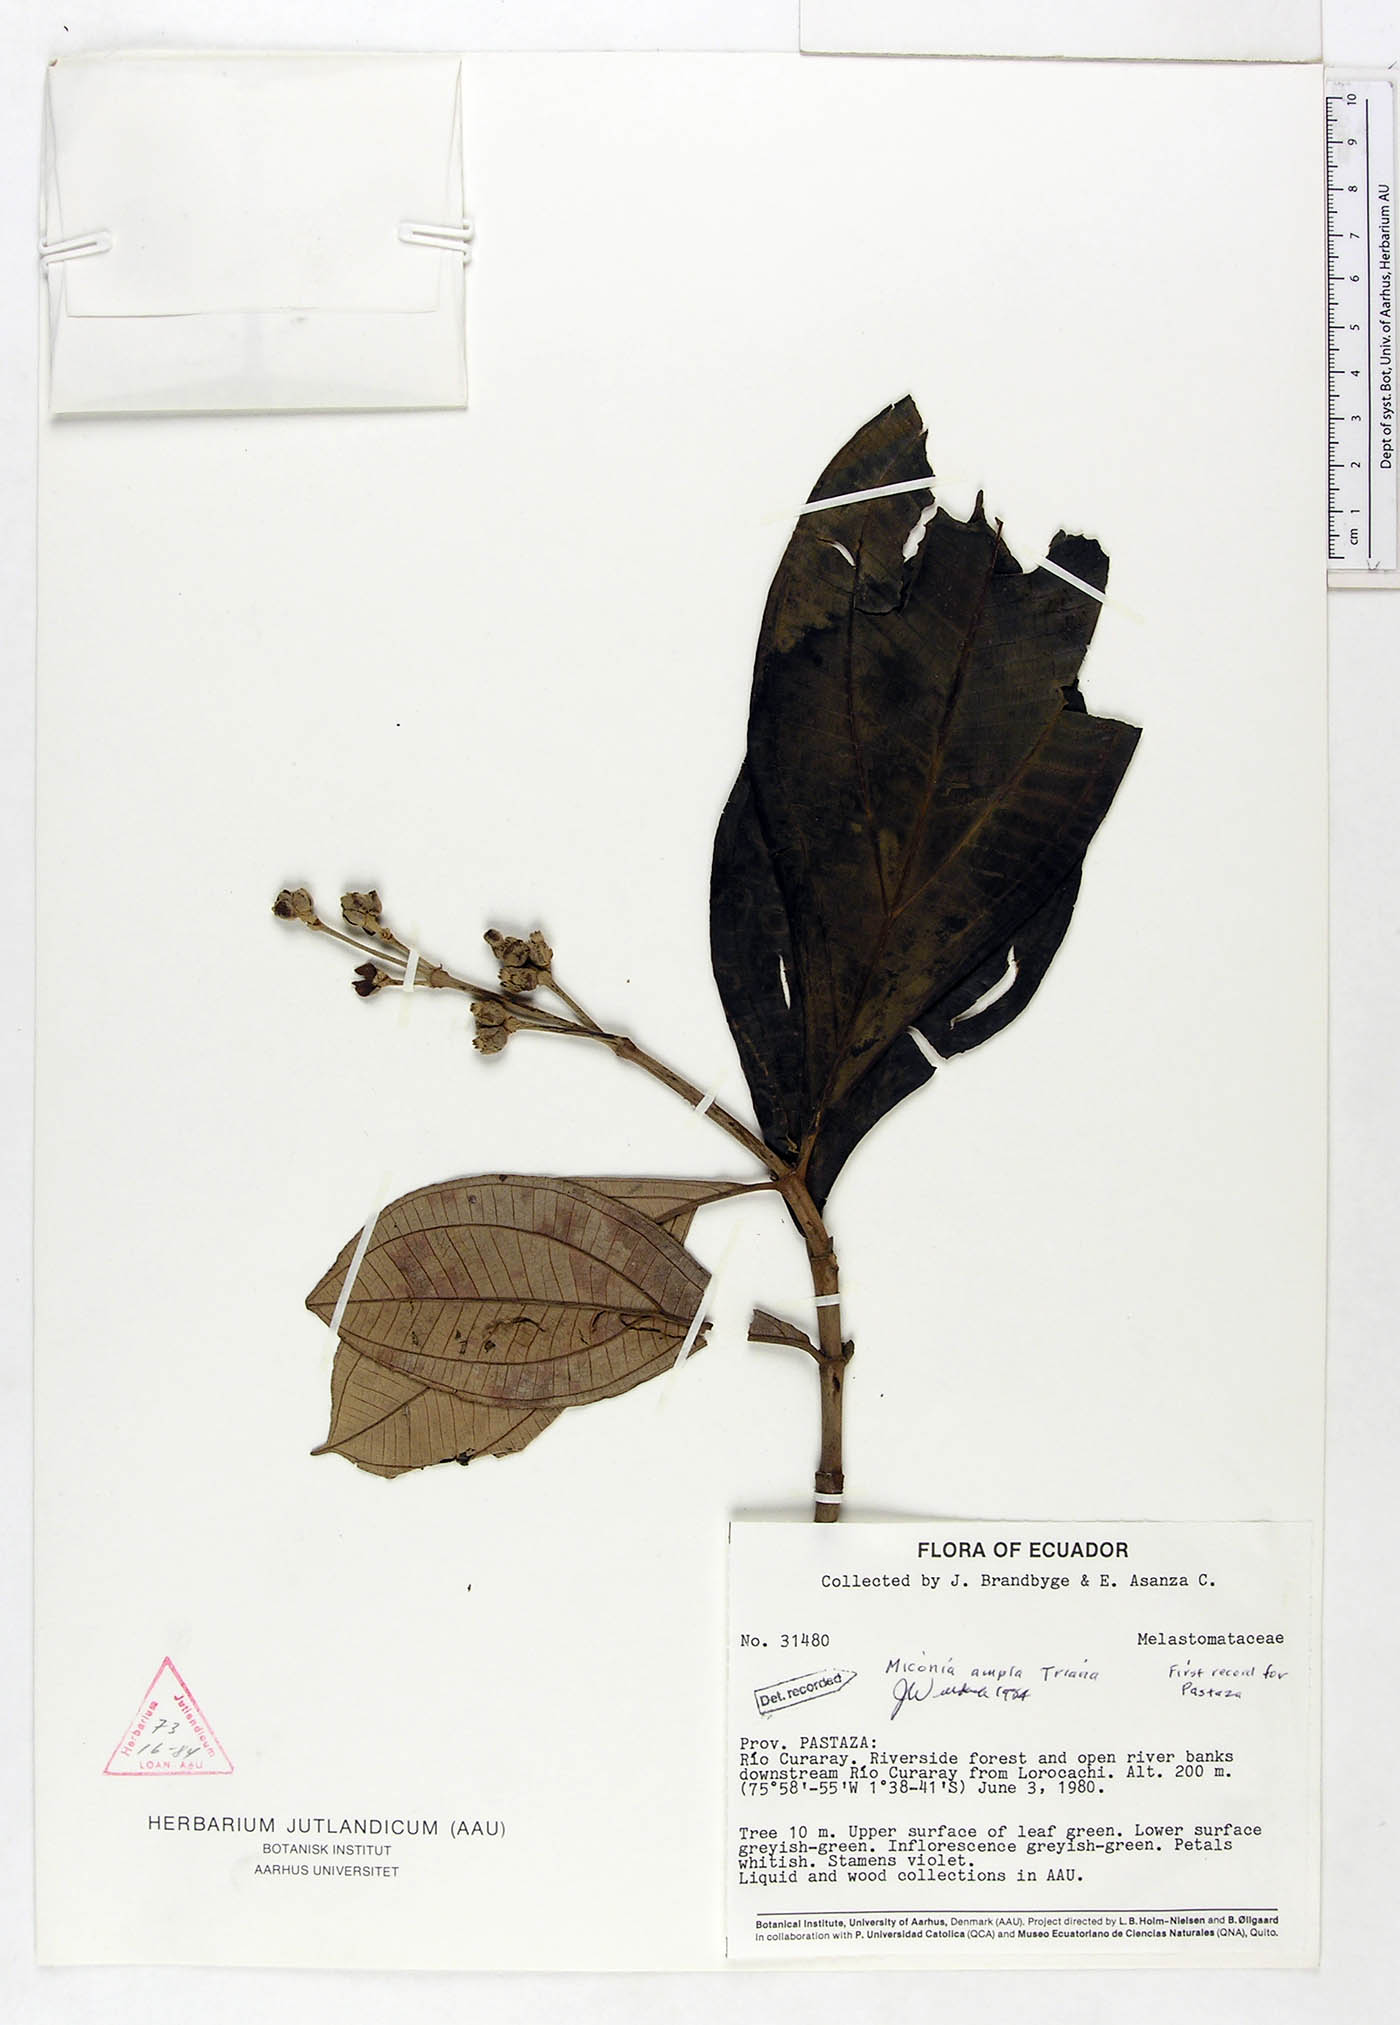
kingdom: Plantae
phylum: Tracheophyta
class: Magnoliopsida
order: Myrtales
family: Melastomataceae
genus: Miconia
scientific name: Miconia ampla
